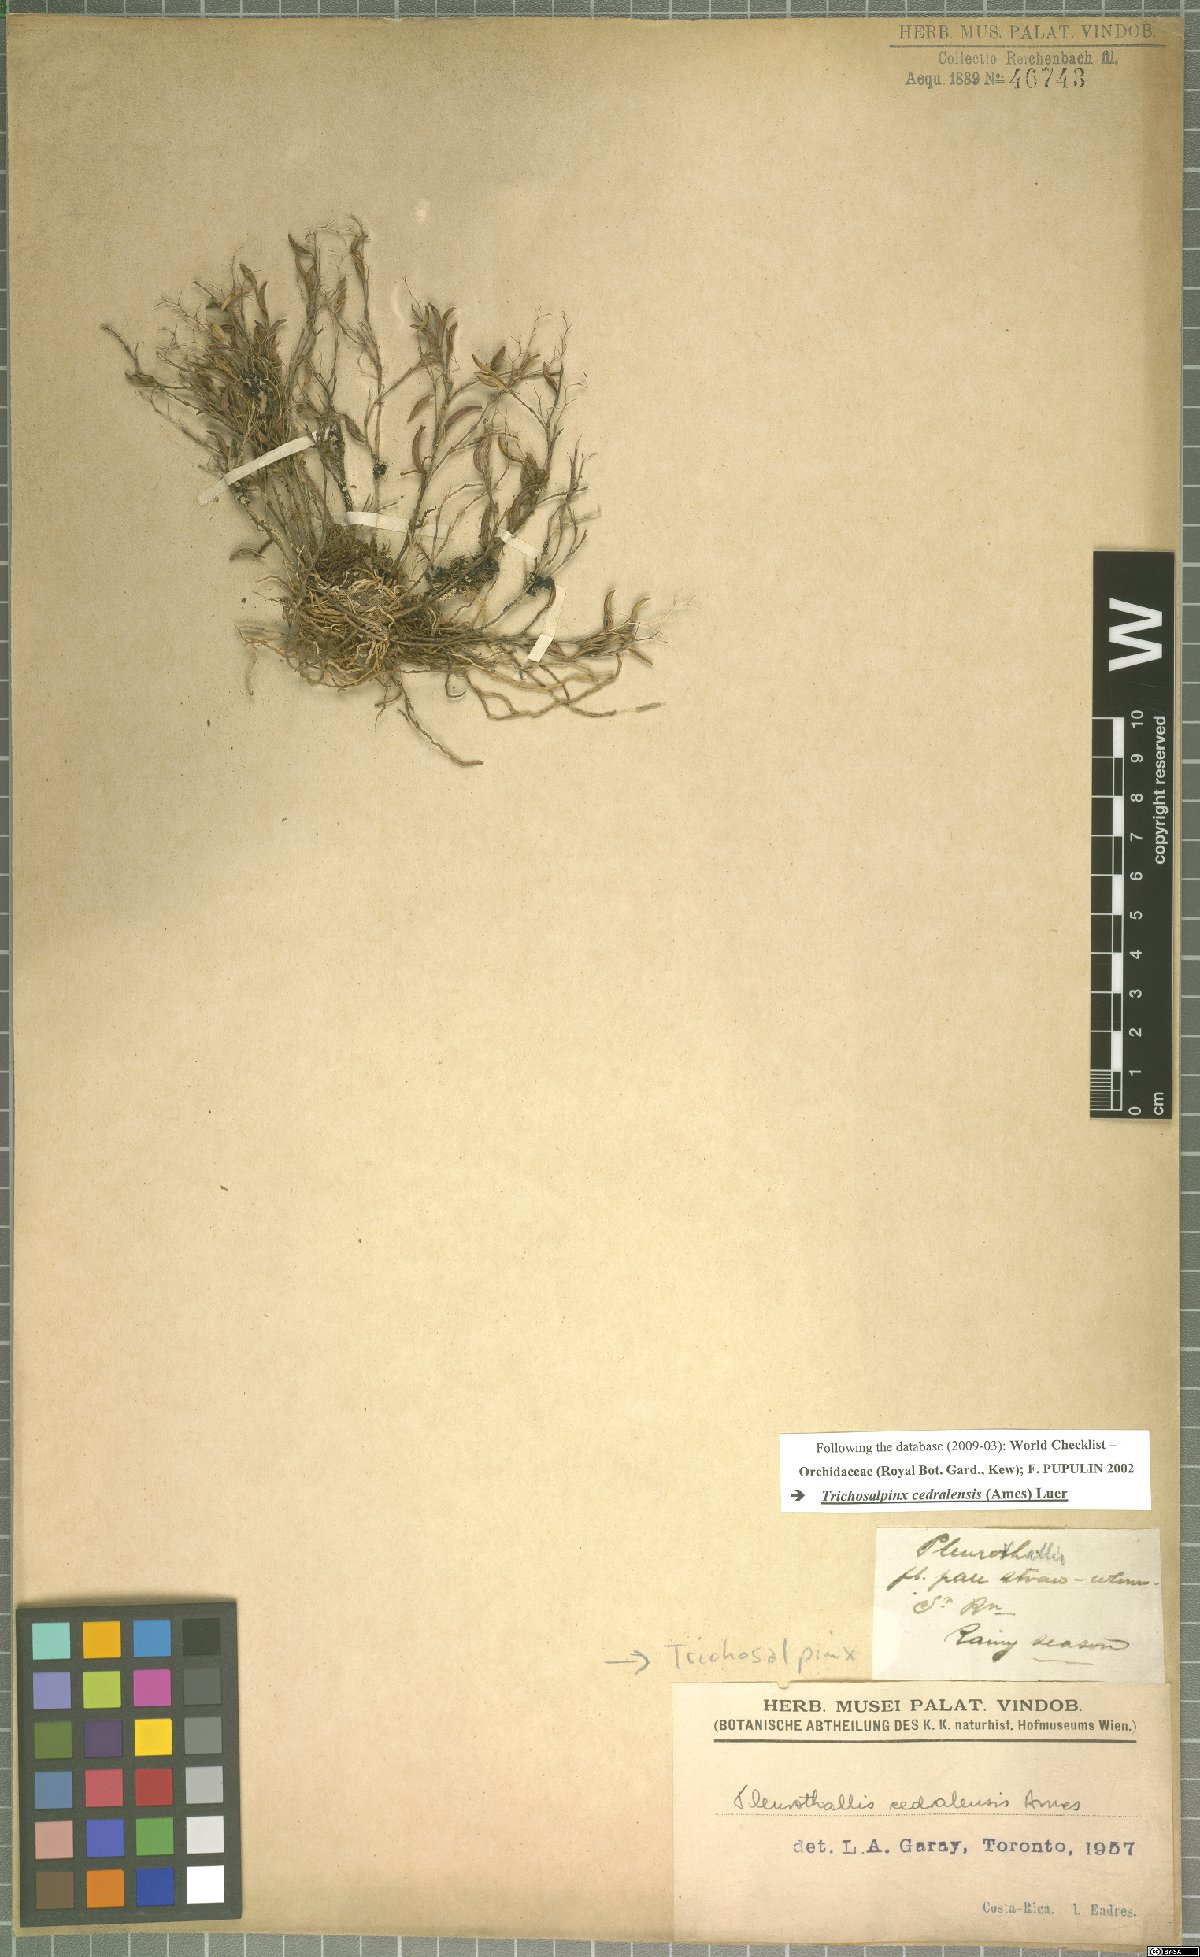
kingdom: Plantae
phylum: Tracheophyta
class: Liliopsida
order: Asparagales
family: Orchidaceae
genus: Trichosalpinx
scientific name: Trichosalpinx cedralensis
